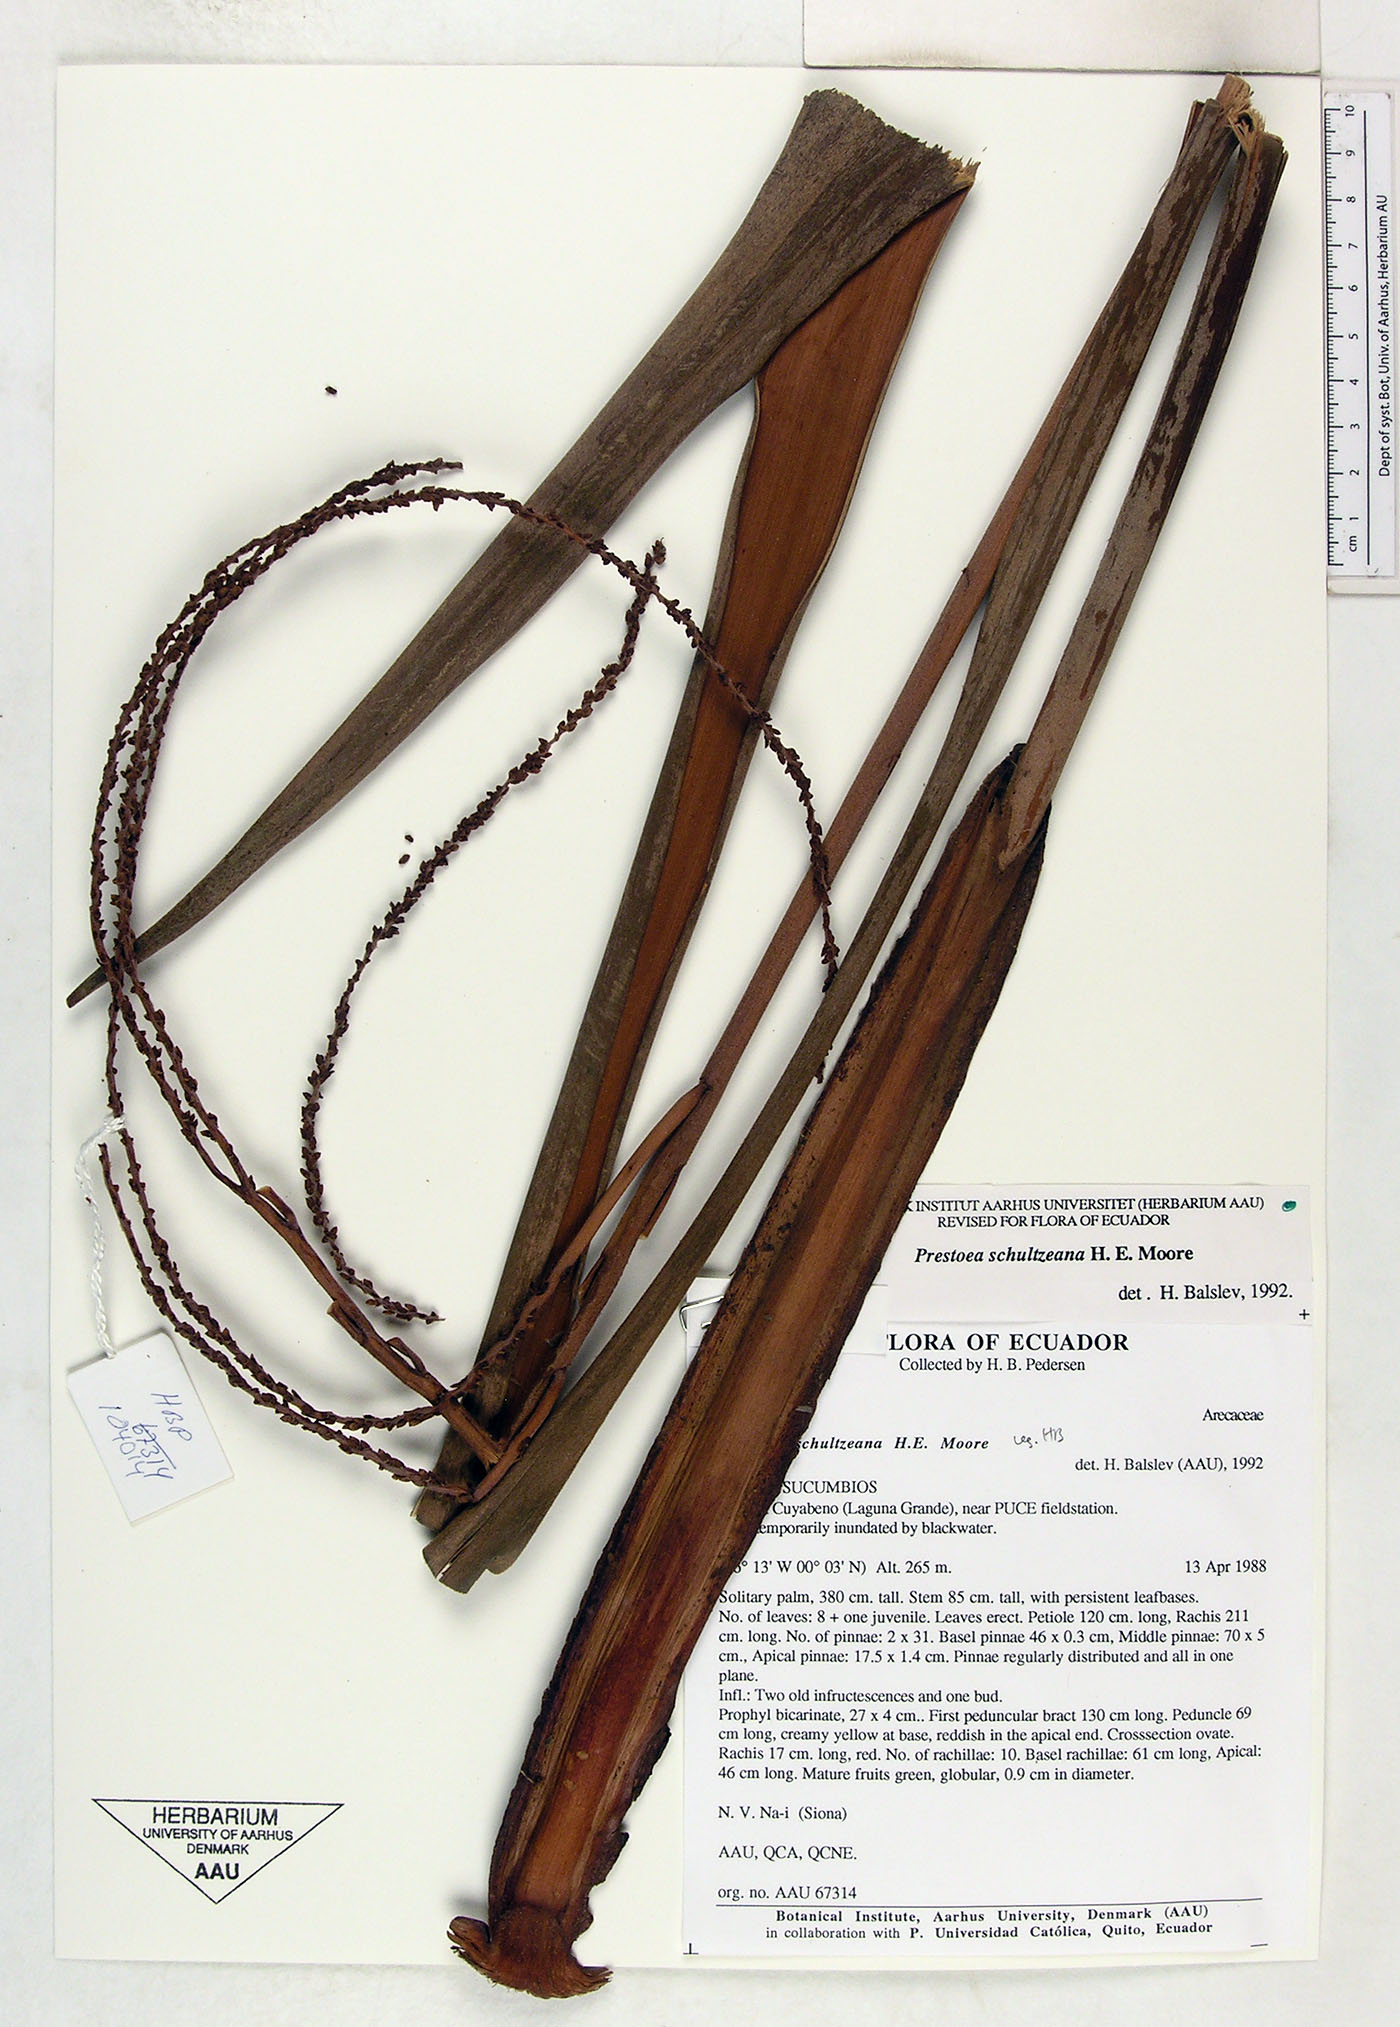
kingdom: Plantae
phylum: Tracheophyta
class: Liliopsida
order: Arecales
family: Arecaceae
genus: Prestoea
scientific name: Prestoea schultzeana
